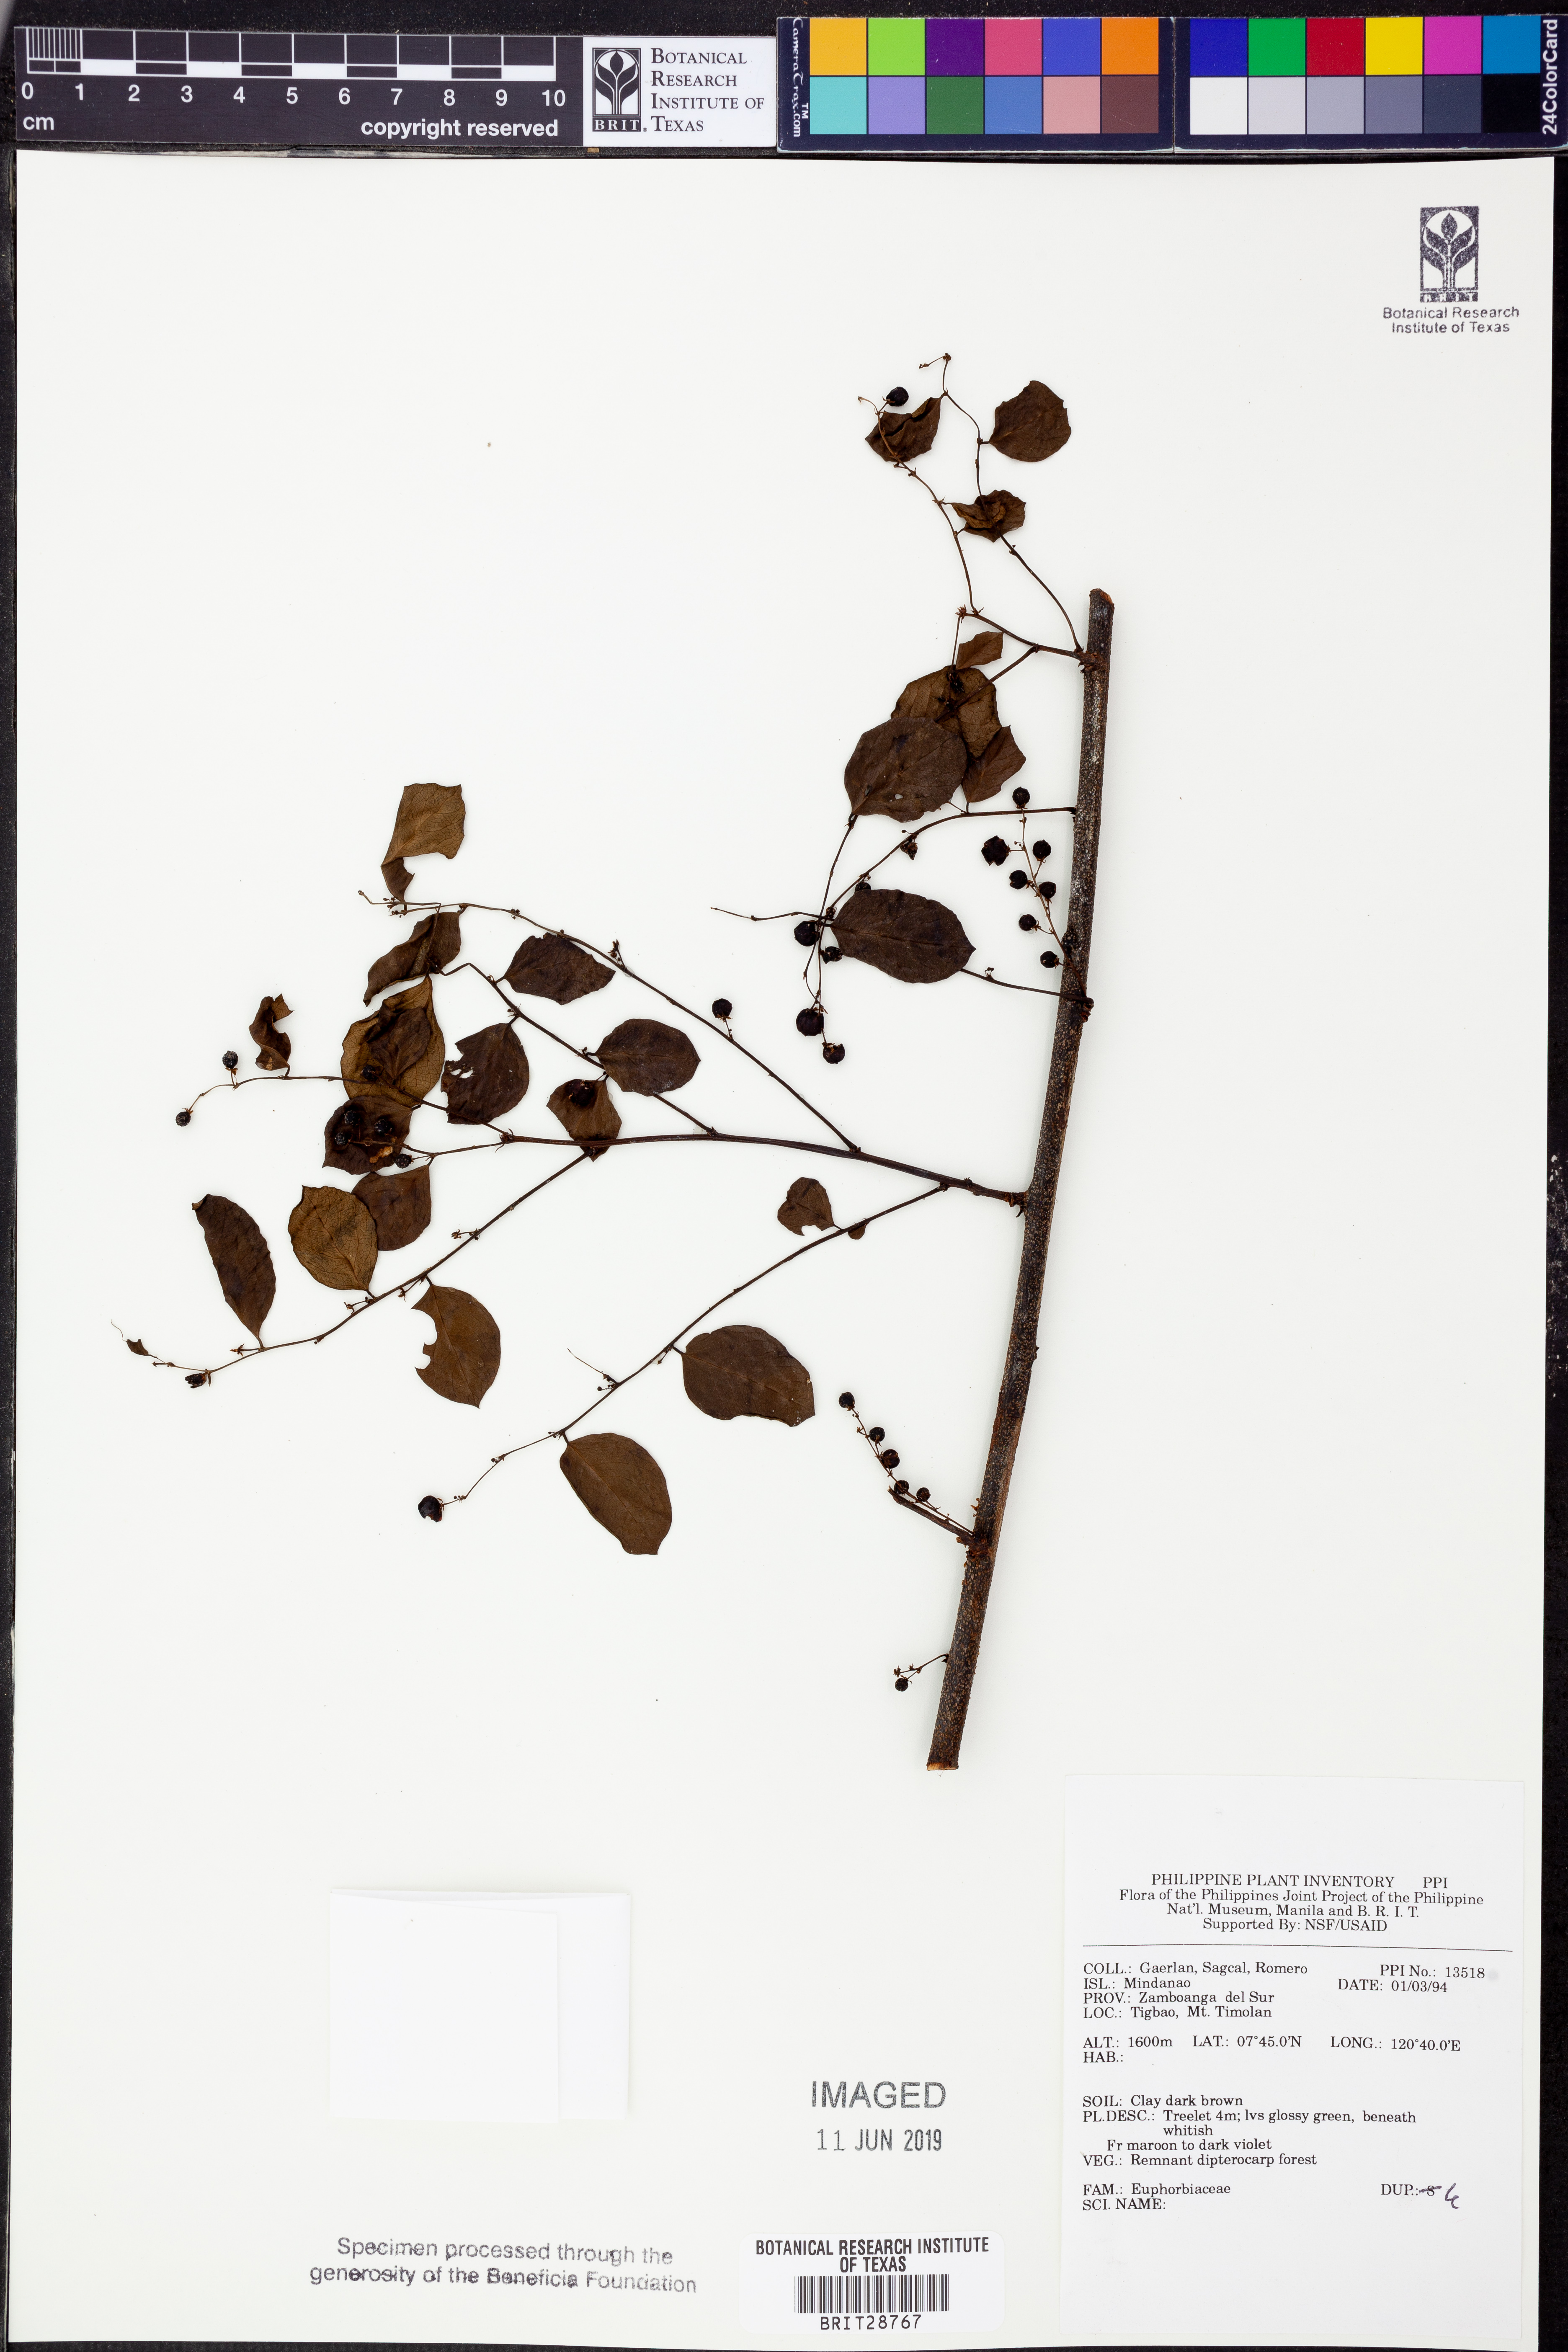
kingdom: Plantae
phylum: Tracheophyta
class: Magnoliopsida
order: Malpighiales
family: Euphorbiaceae
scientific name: Euphorbiaceae
